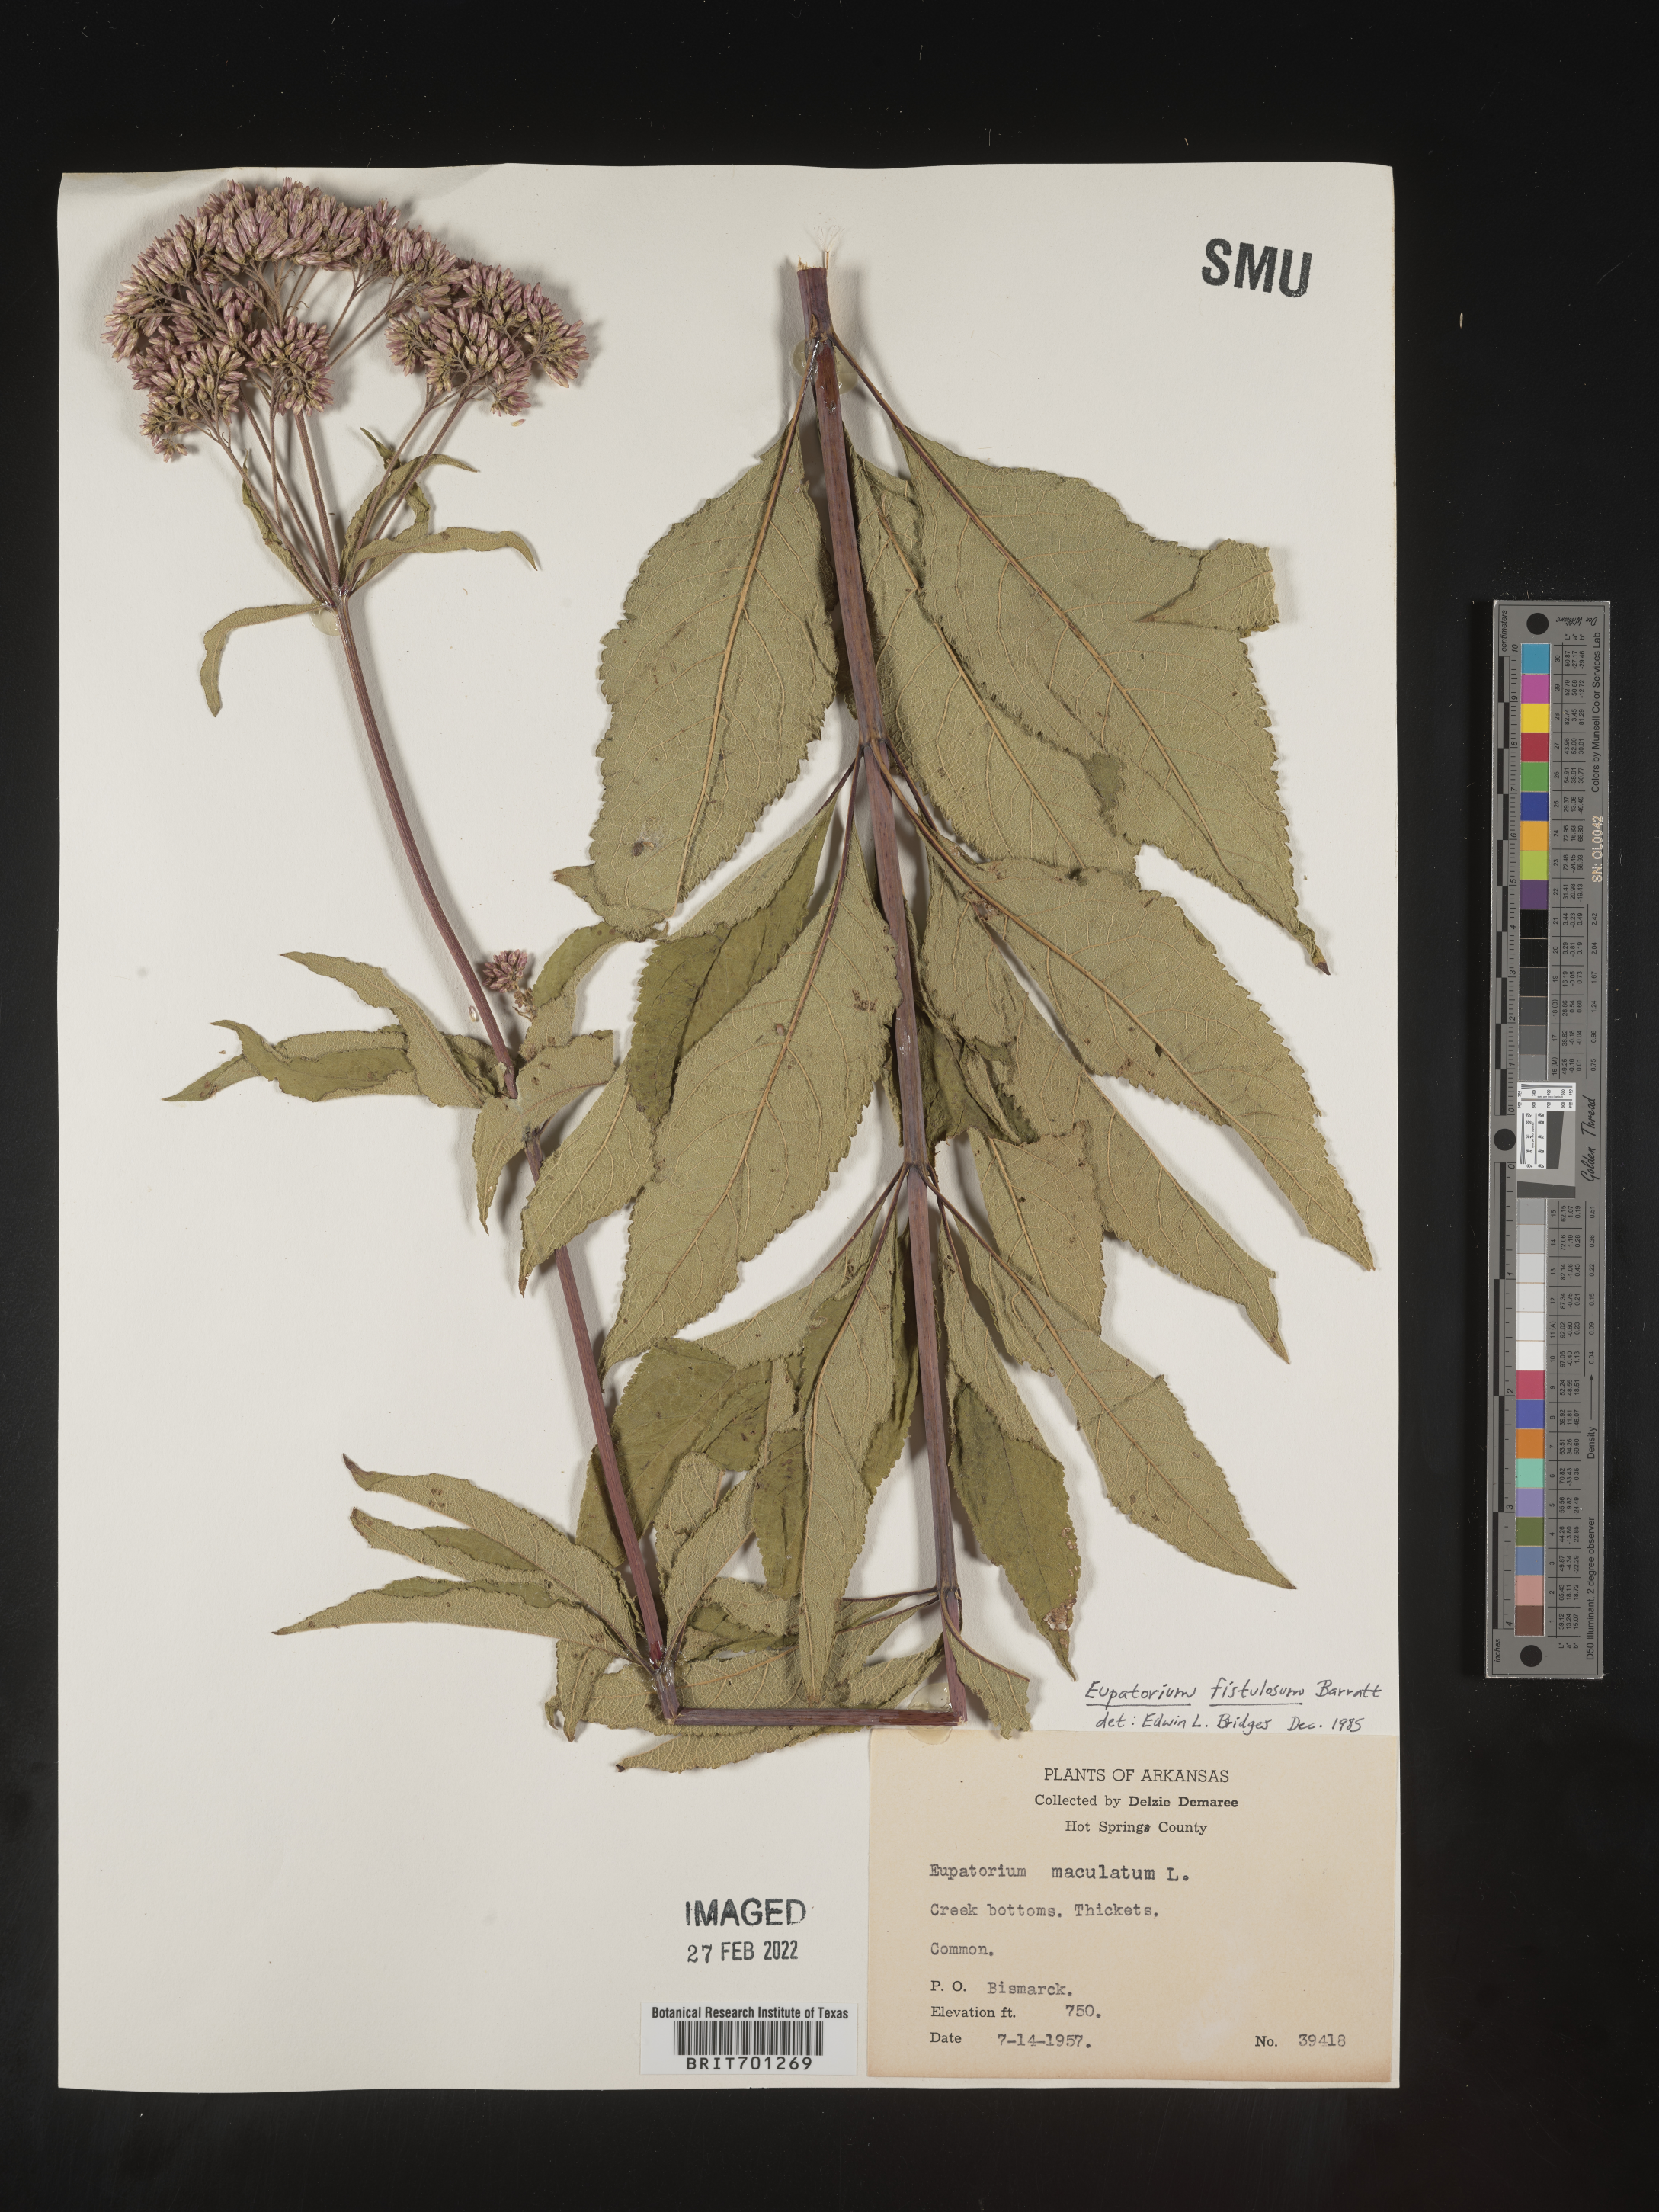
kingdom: Plantae
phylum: Tracheophyta
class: Magnoliopsida
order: Asterales
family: Asteraceae
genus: Eutrochium
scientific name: Eutrochium fistulosum
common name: Trumpetweed
